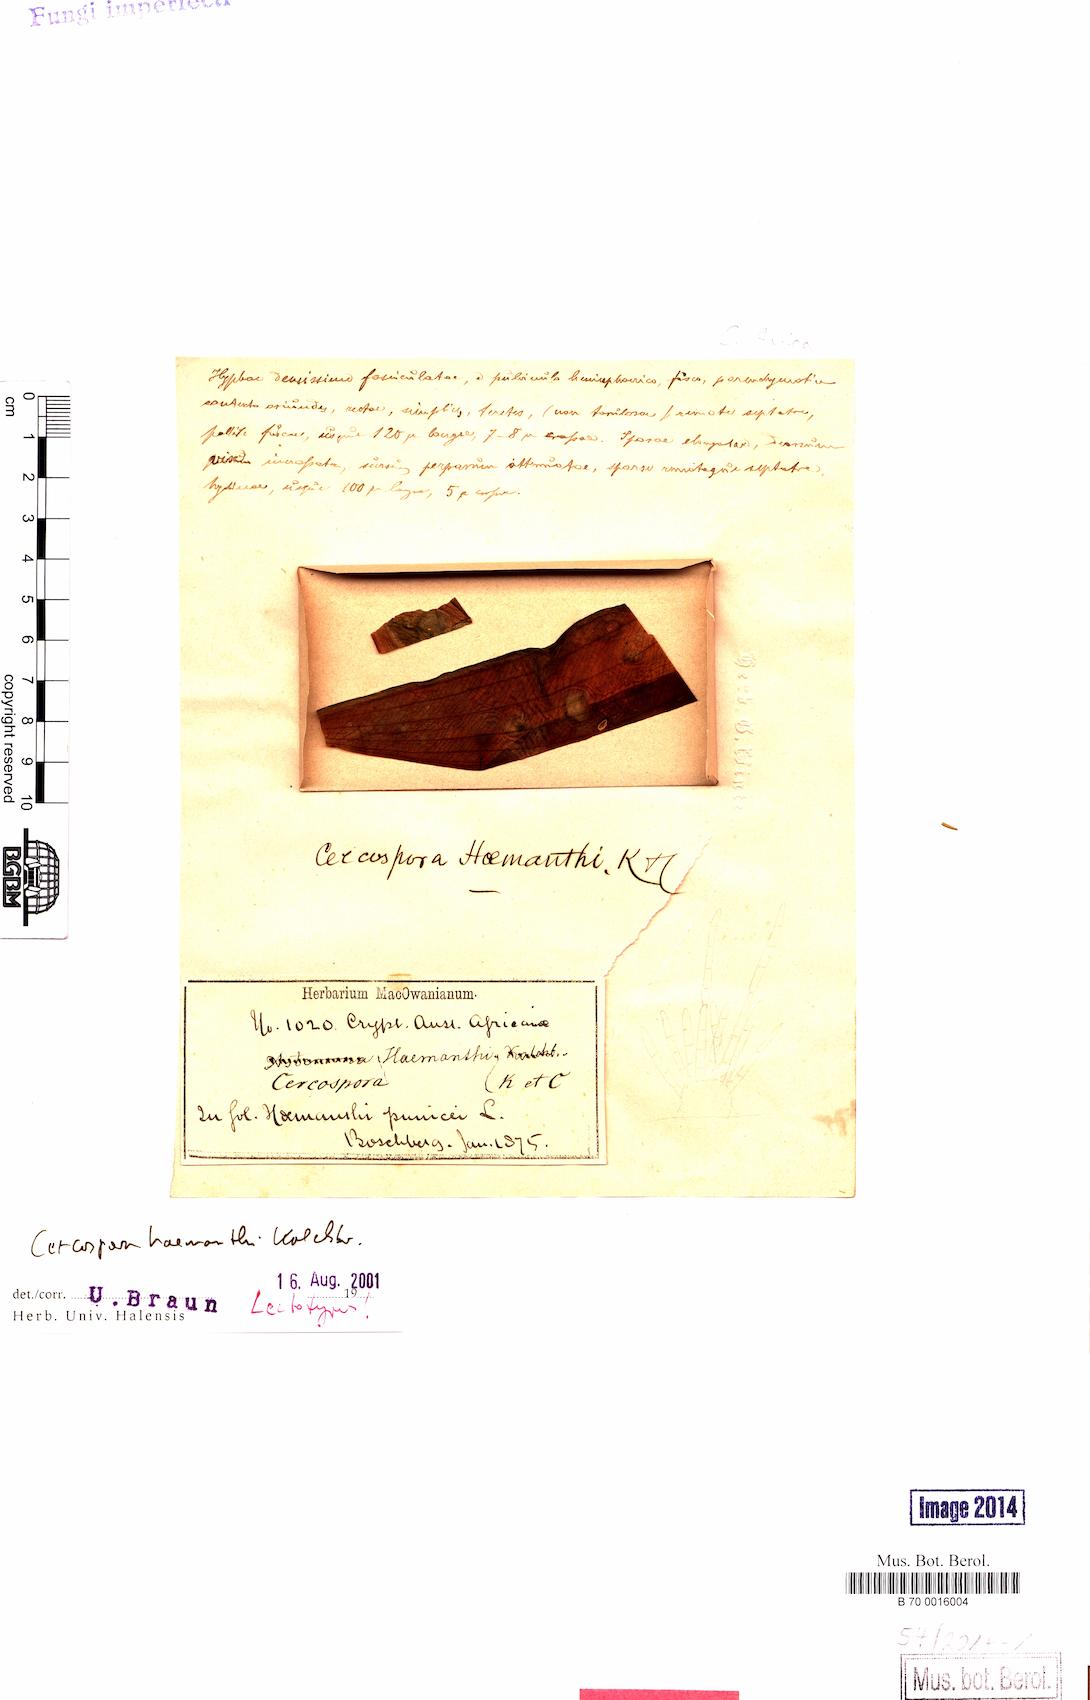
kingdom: Fungi
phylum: Ascomycota
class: Dothideomycetes
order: Mycosphaerellales
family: Mycosphaerellaceae
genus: Cercospora
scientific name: Cercospora
